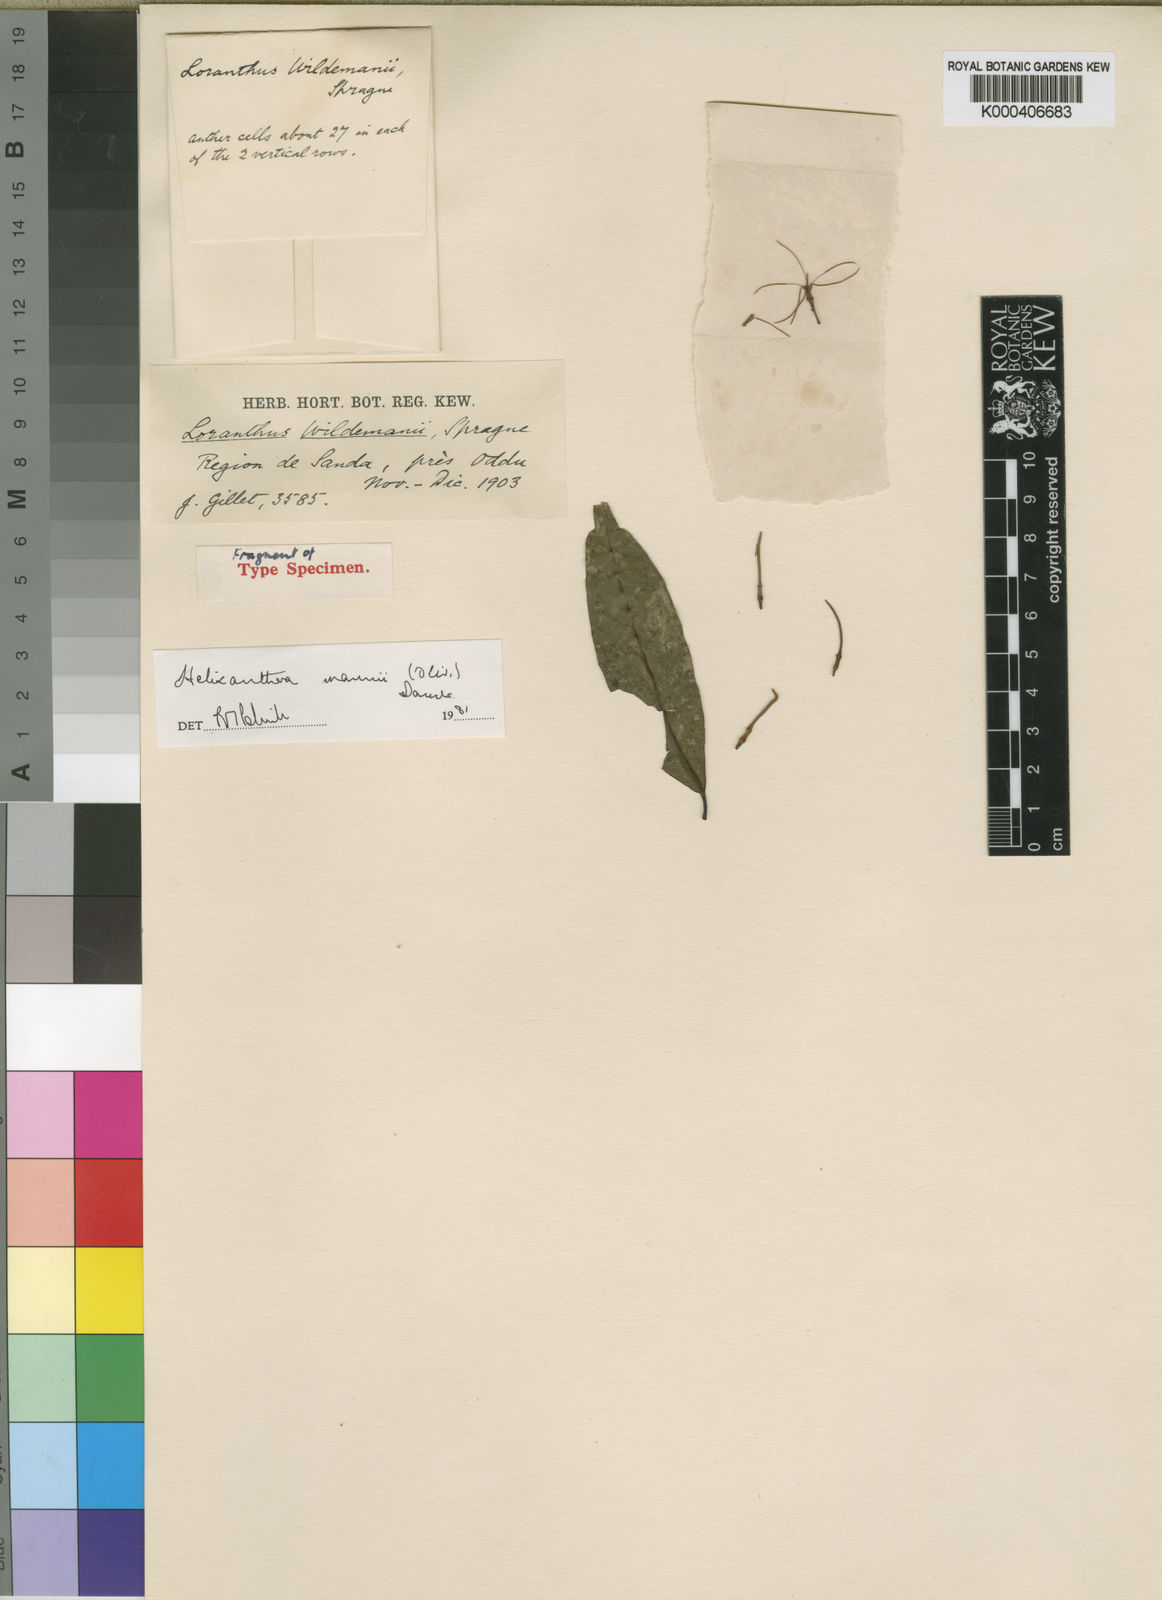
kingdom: Plantae
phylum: Tracheophyta
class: Magnoliopsida
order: Santalales
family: Loranthaceae
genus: Helixanthera
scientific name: Helixanthera mannii
